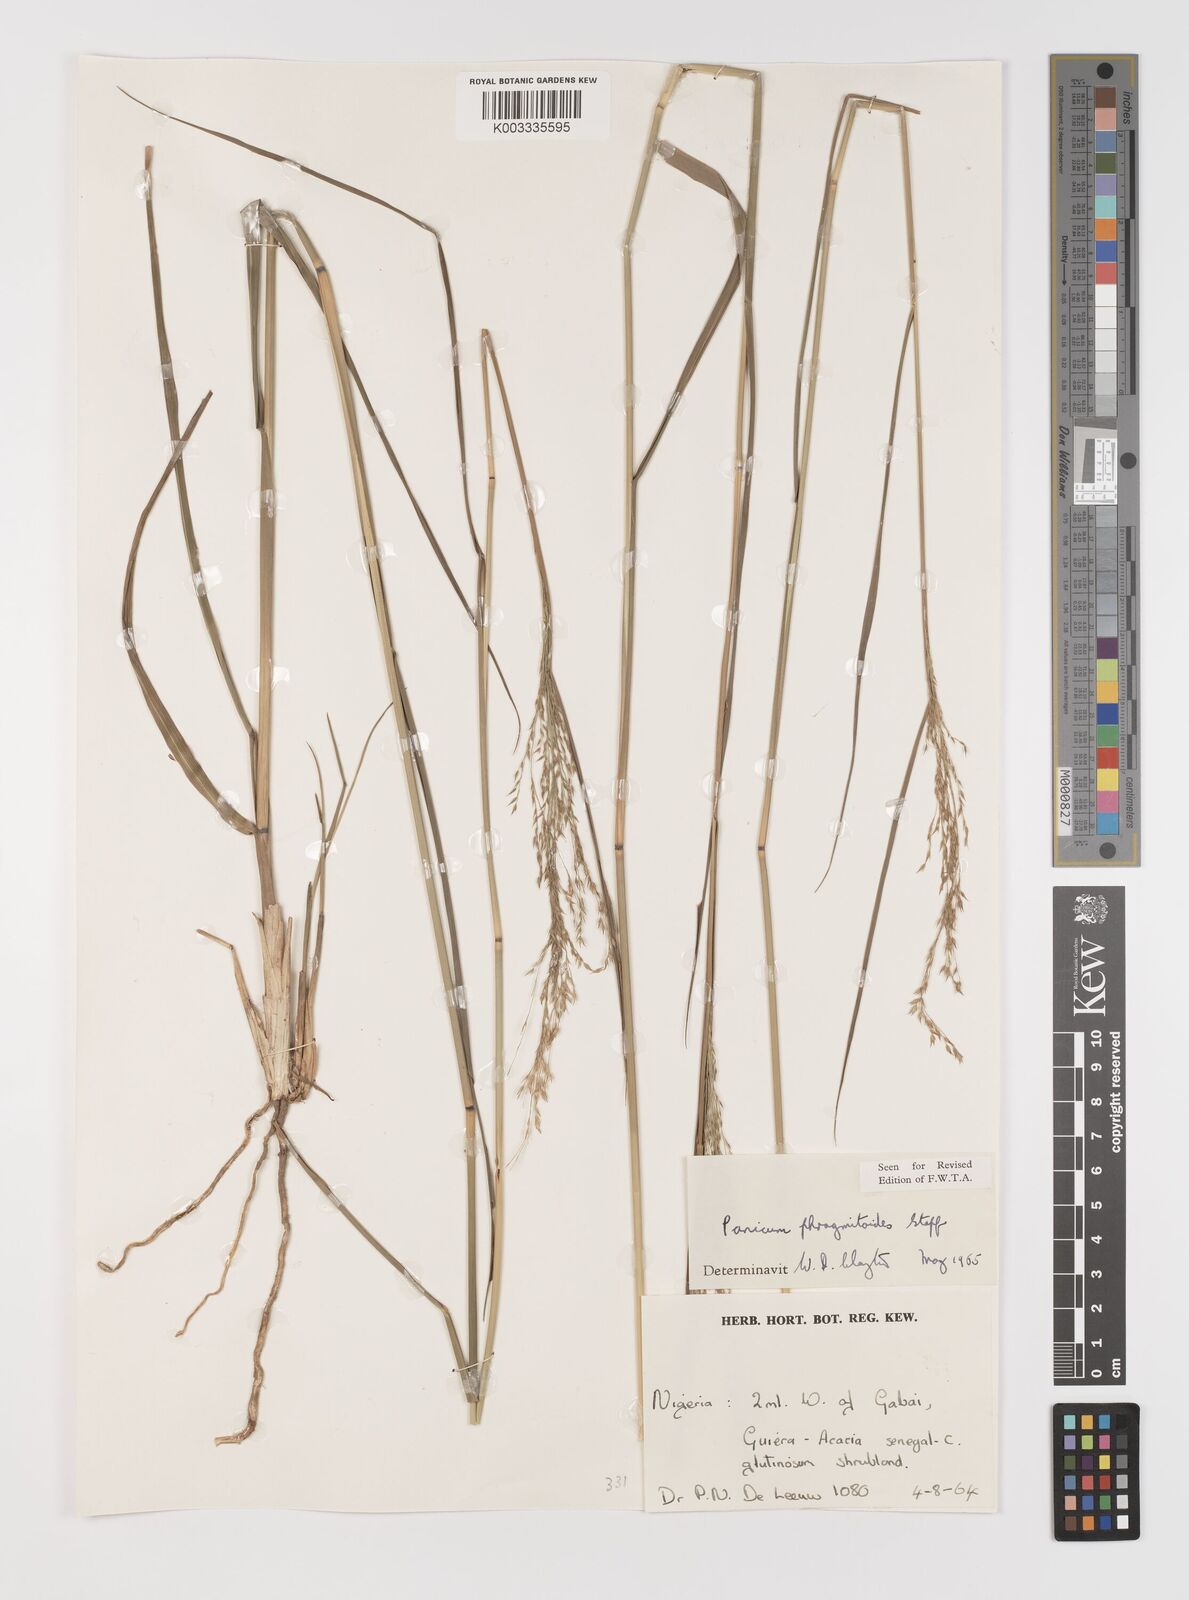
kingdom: Plantae
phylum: Tracheophyta
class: Liliopsida
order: Poales
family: Poaceae
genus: Panicum
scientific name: Panicum phragmitoides
